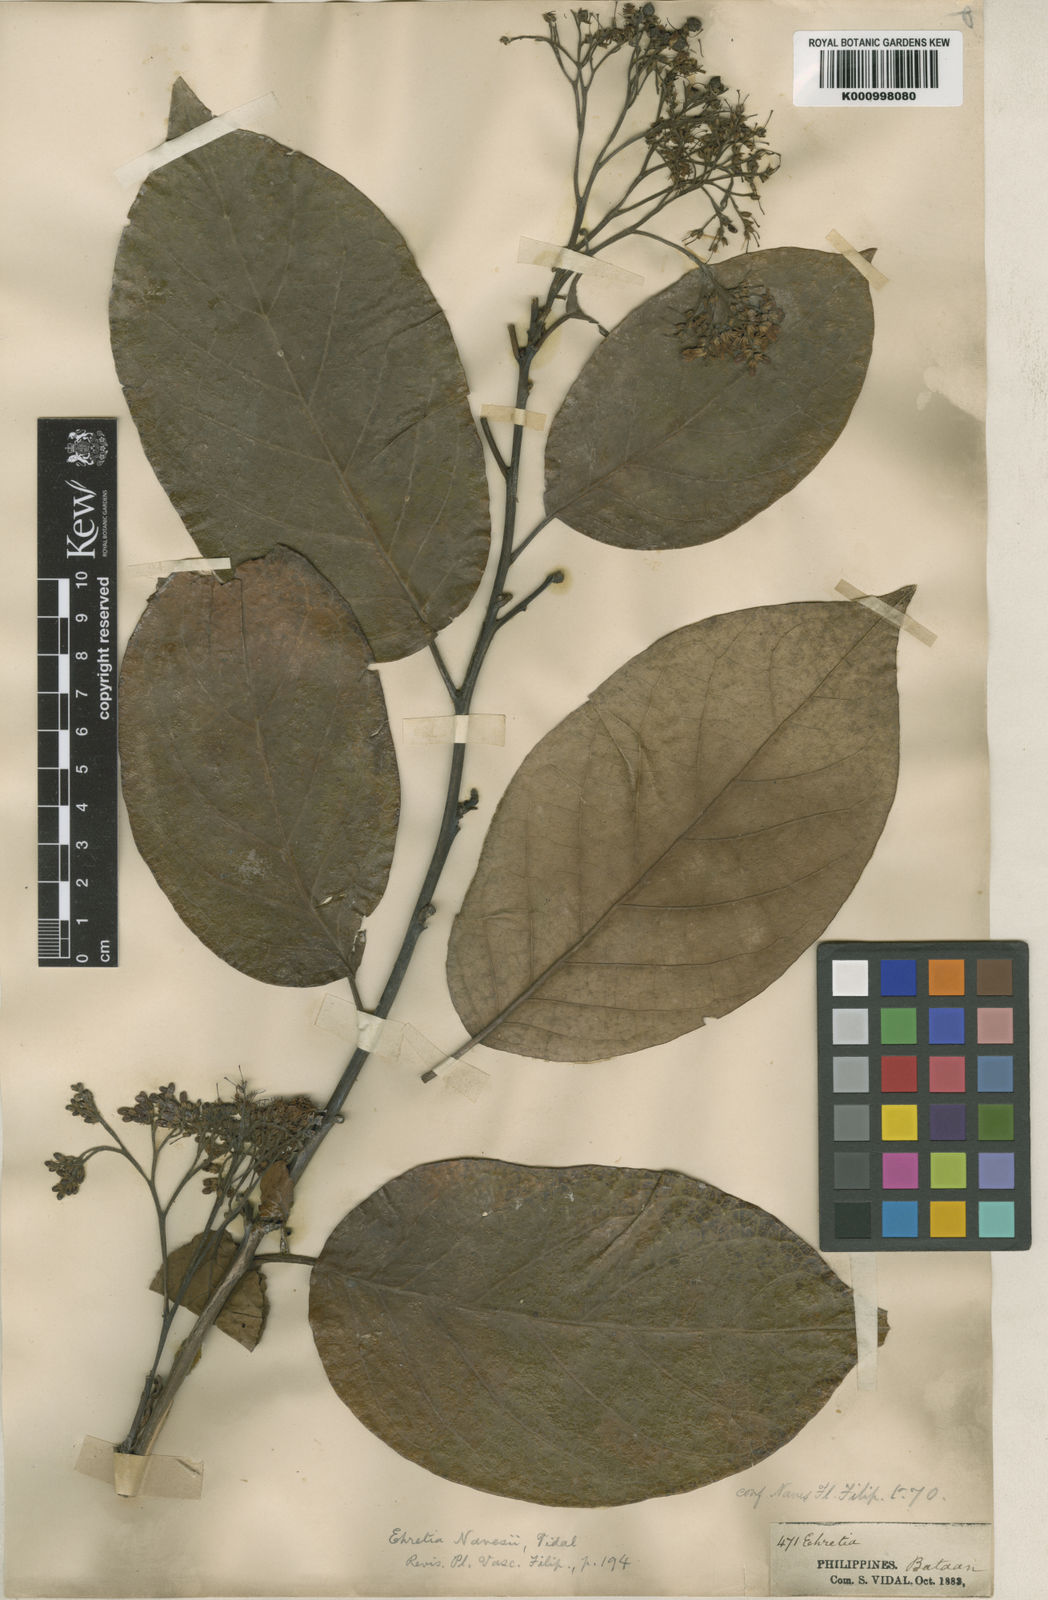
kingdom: Plantae
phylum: Tracheophyta
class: Magnoliopsida
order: Boraginales
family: Ehretiaceae
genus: Ehretia
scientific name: Ehretia resinosa
